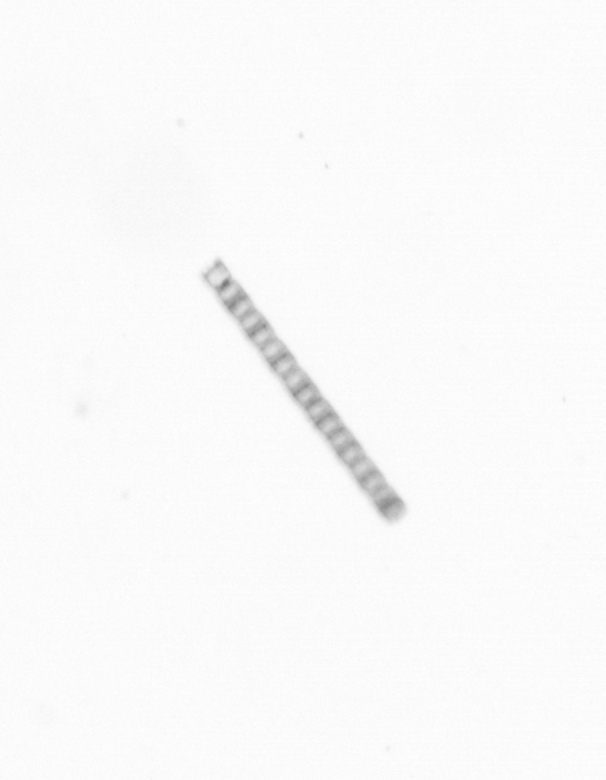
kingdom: Chromista
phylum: Ochrophyta
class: Bacillariophyceae
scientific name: Bacillariophyceae
